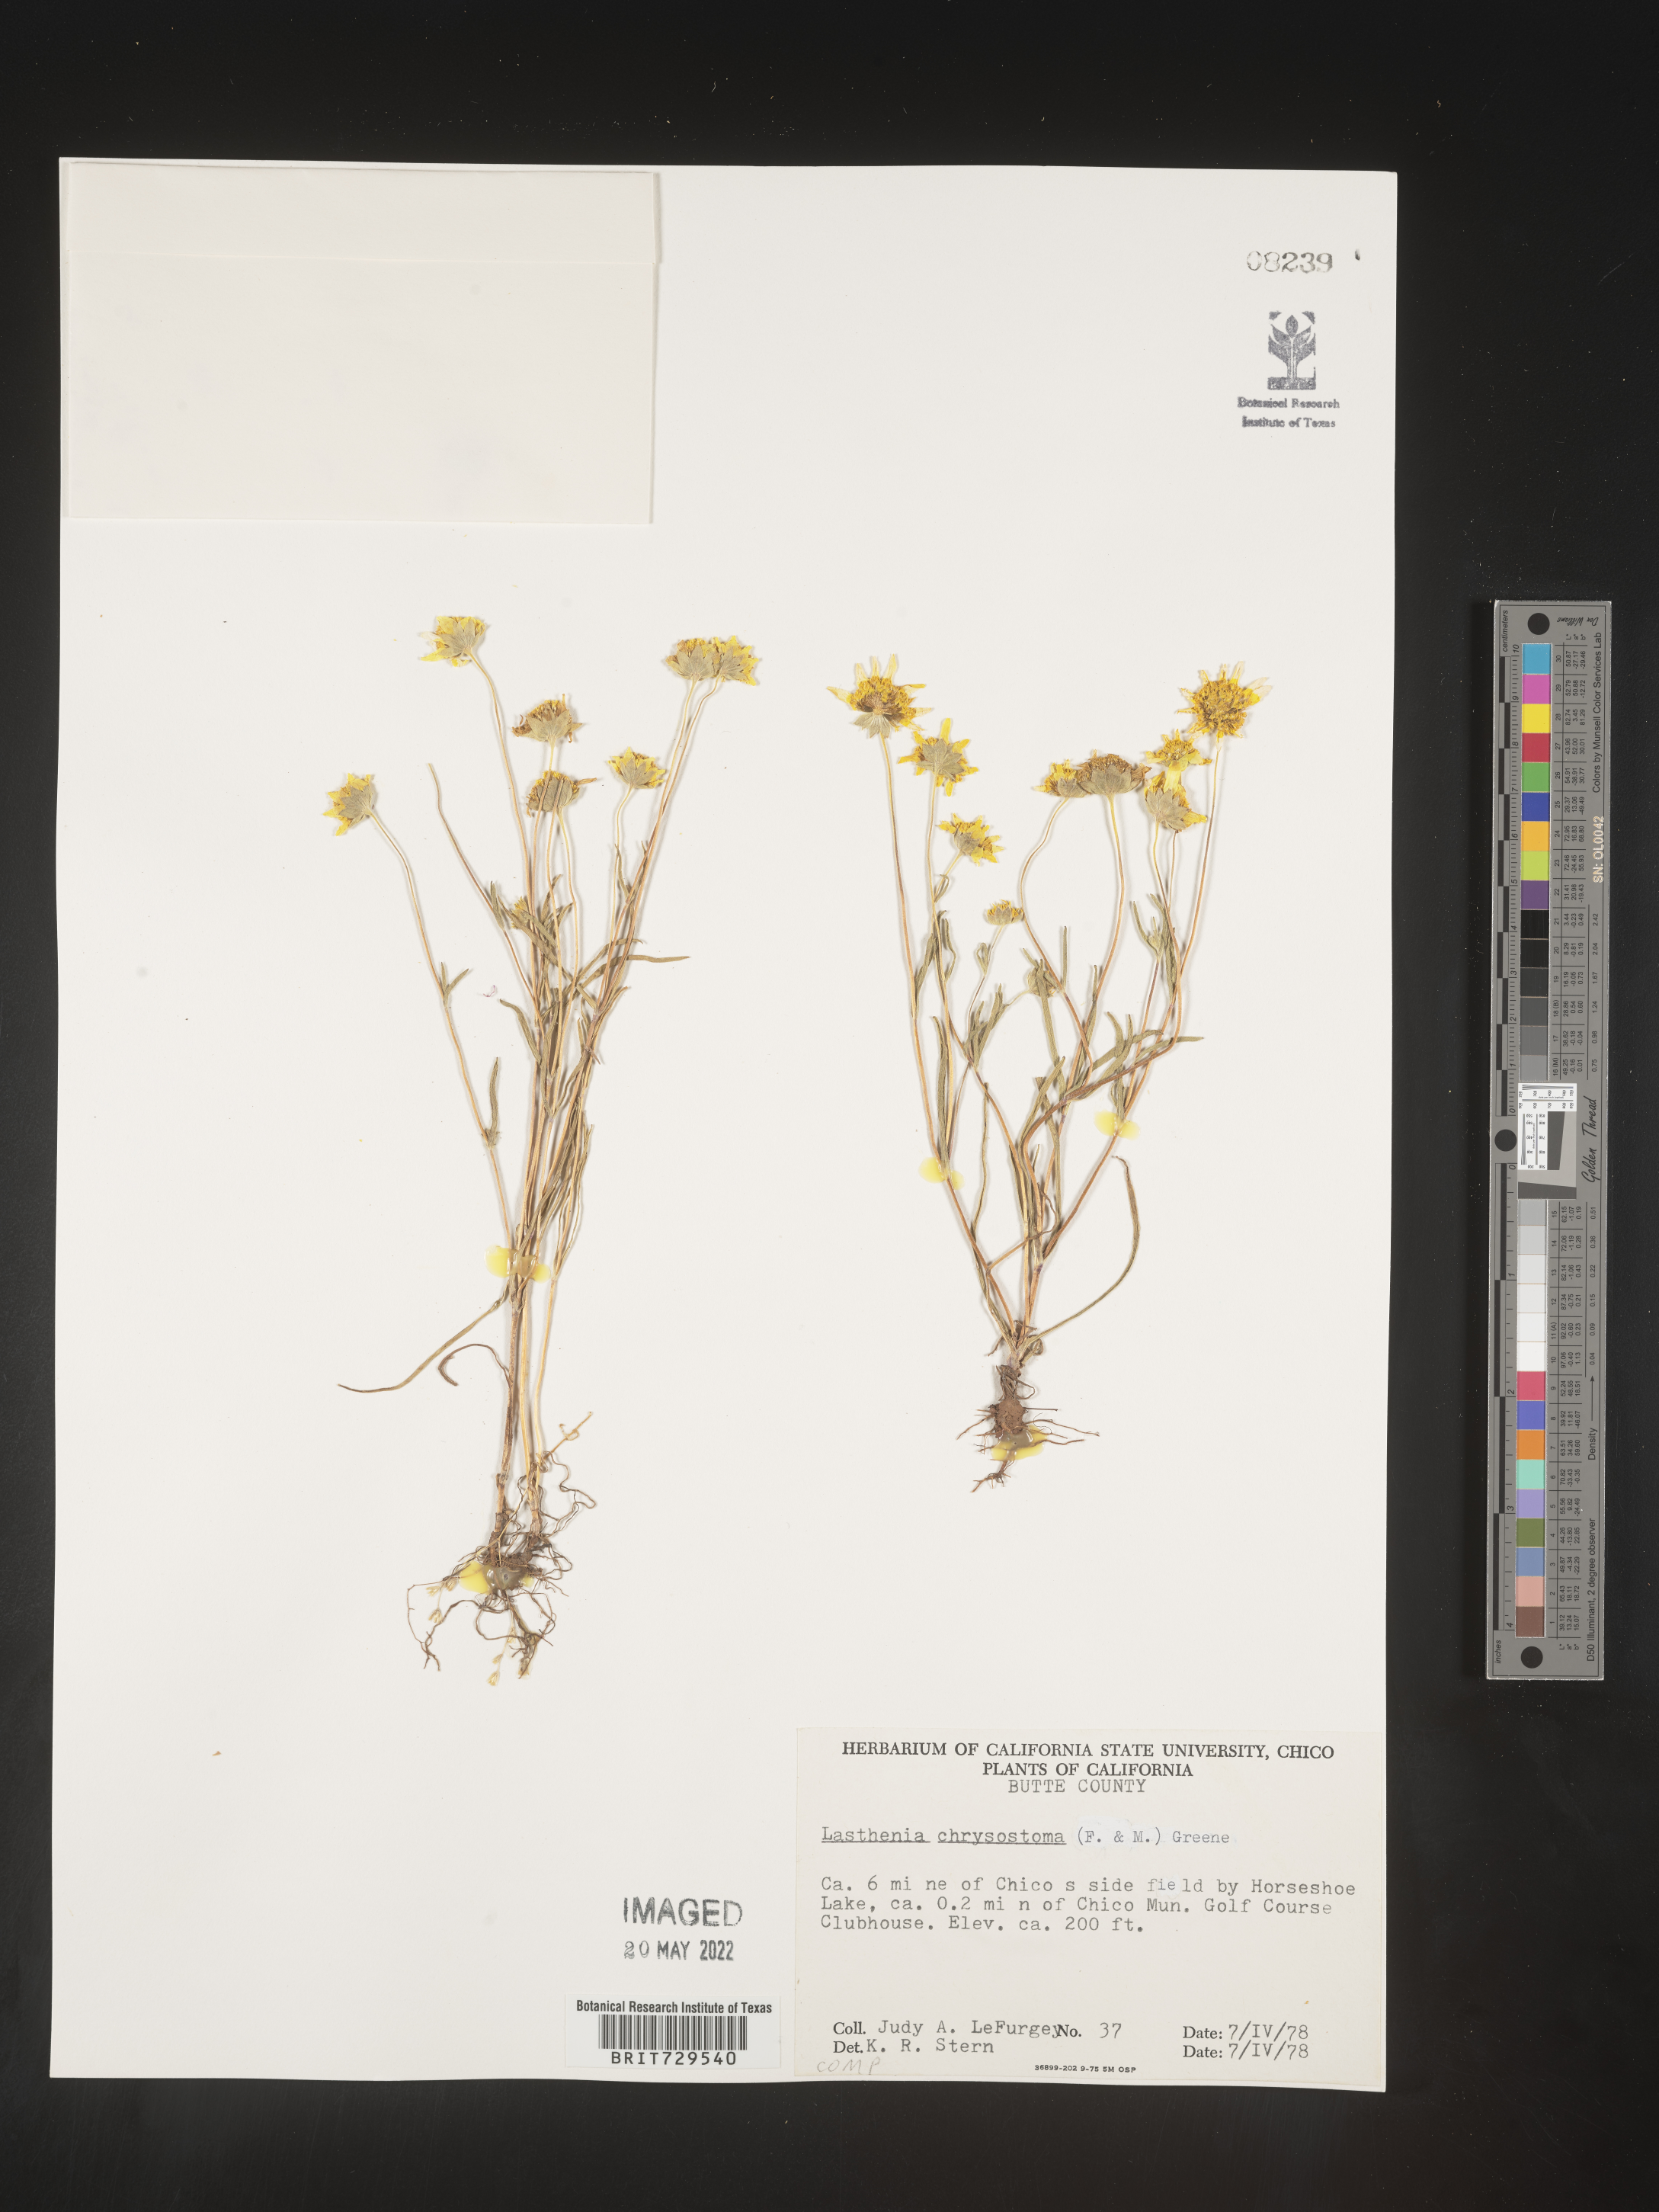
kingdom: Plantae
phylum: Tracheophyta
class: Magnoliopsida
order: Asterales
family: Asteraceae
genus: Lasthenia
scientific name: Lasthenia
